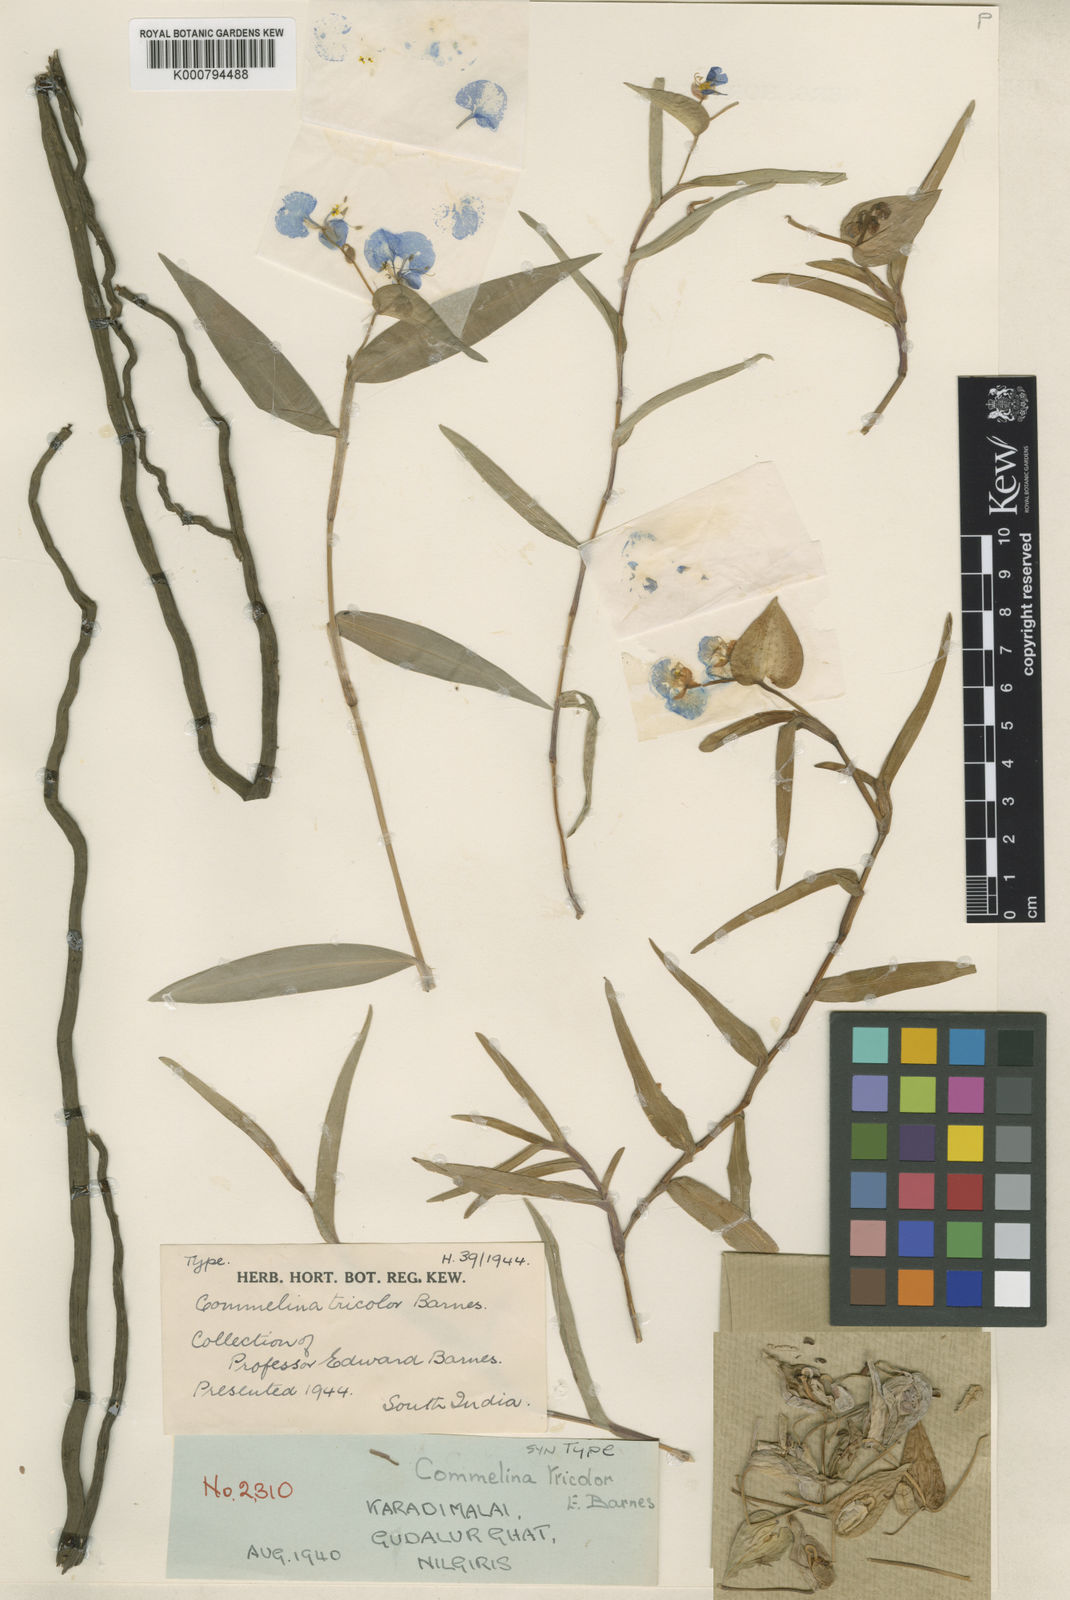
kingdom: Plantae
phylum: Tracheophyta
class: Liliopsida
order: Commelinales
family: Commelinaceae
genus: Commelina
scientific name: Commelina tricolor
